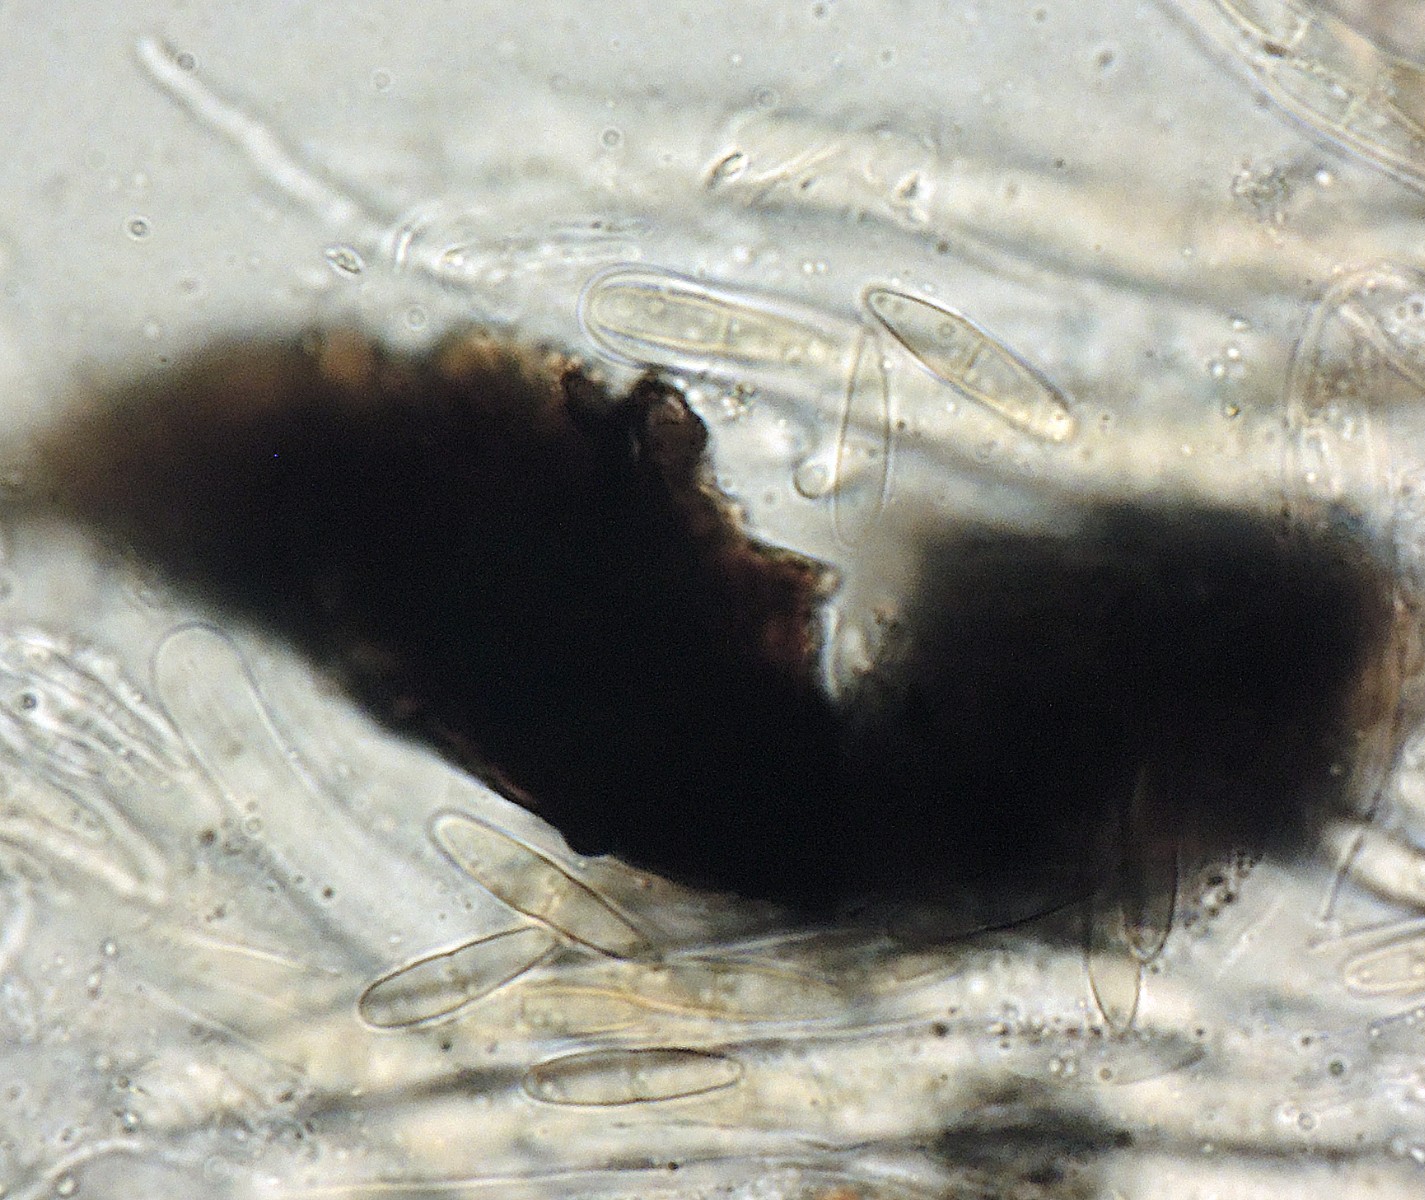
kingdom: Fungi
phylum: Ascomycota
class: Dothideomycetes
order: Mytilinidiales
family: Gloniaceae
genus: Glonium
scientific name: Glonium nitidum
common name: enebær-kulmusling
